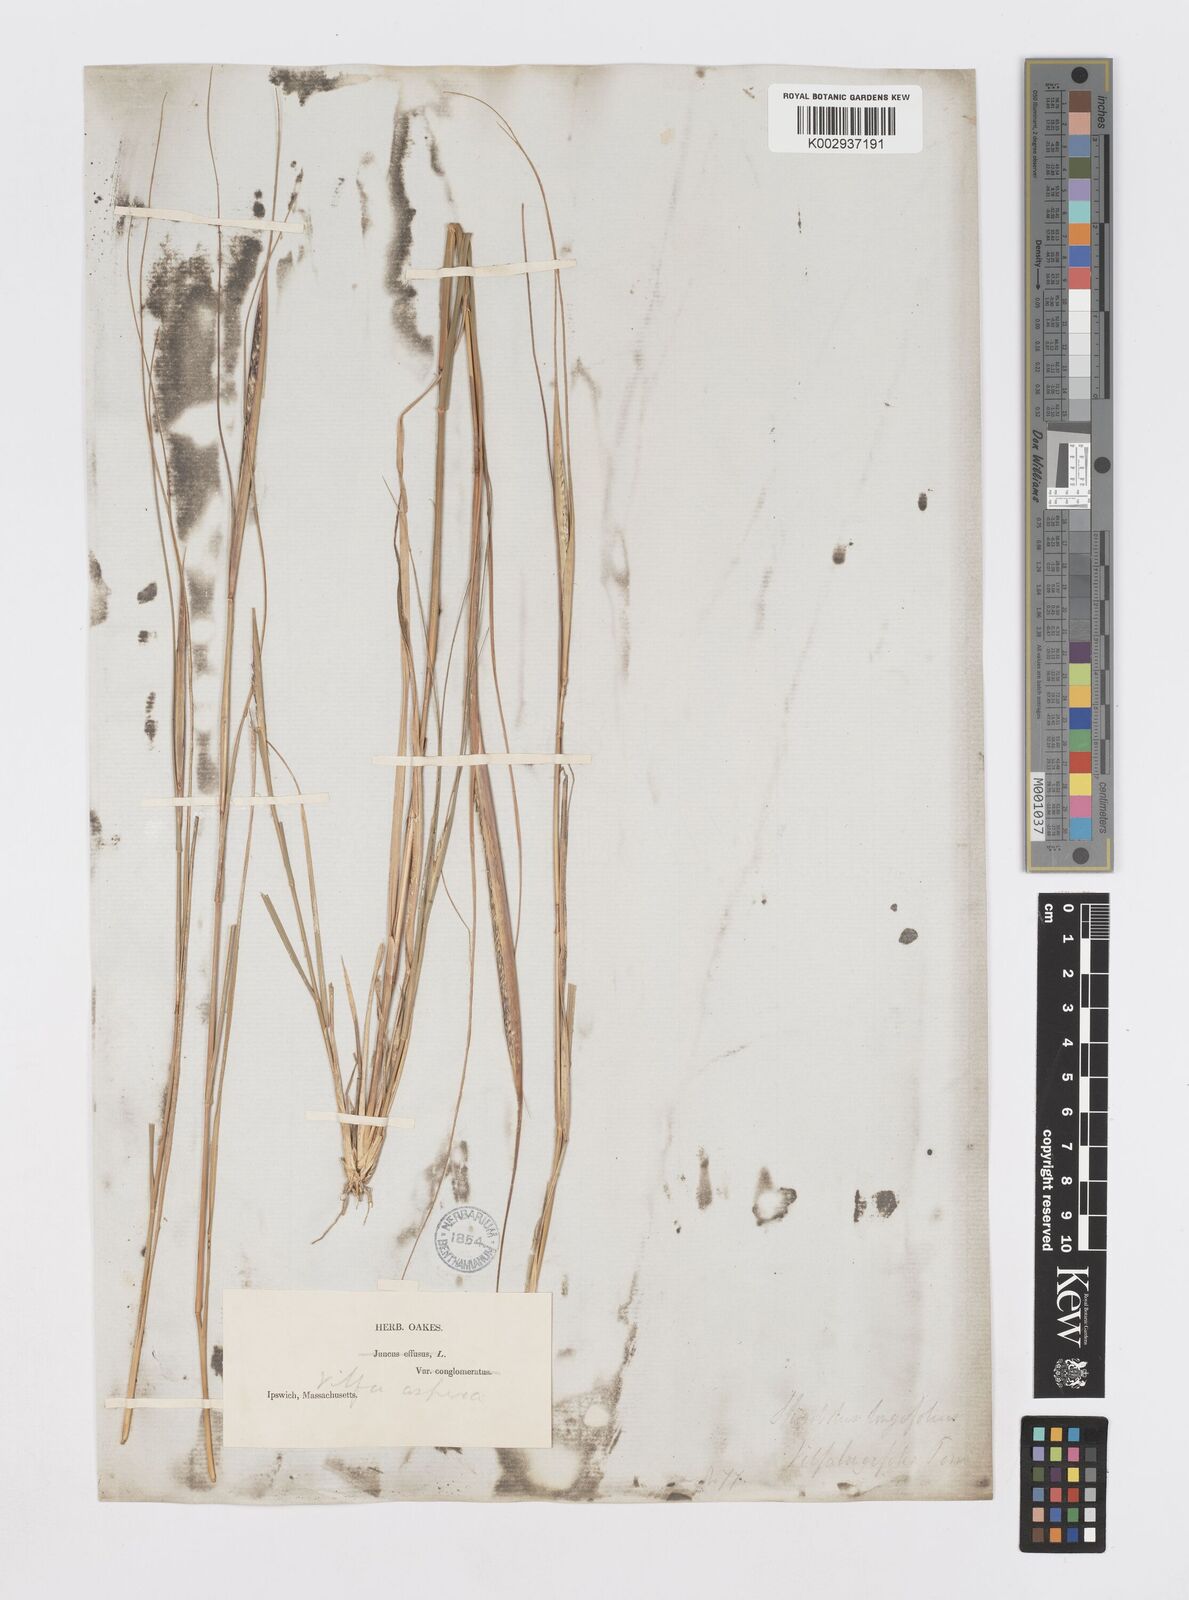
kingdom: Plantae
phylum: Tracheophyta
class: Liliopsida
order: Poales
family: Poaceae
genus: Sporobolus
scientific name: Sporobolus compositus
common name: Rough dropseed
